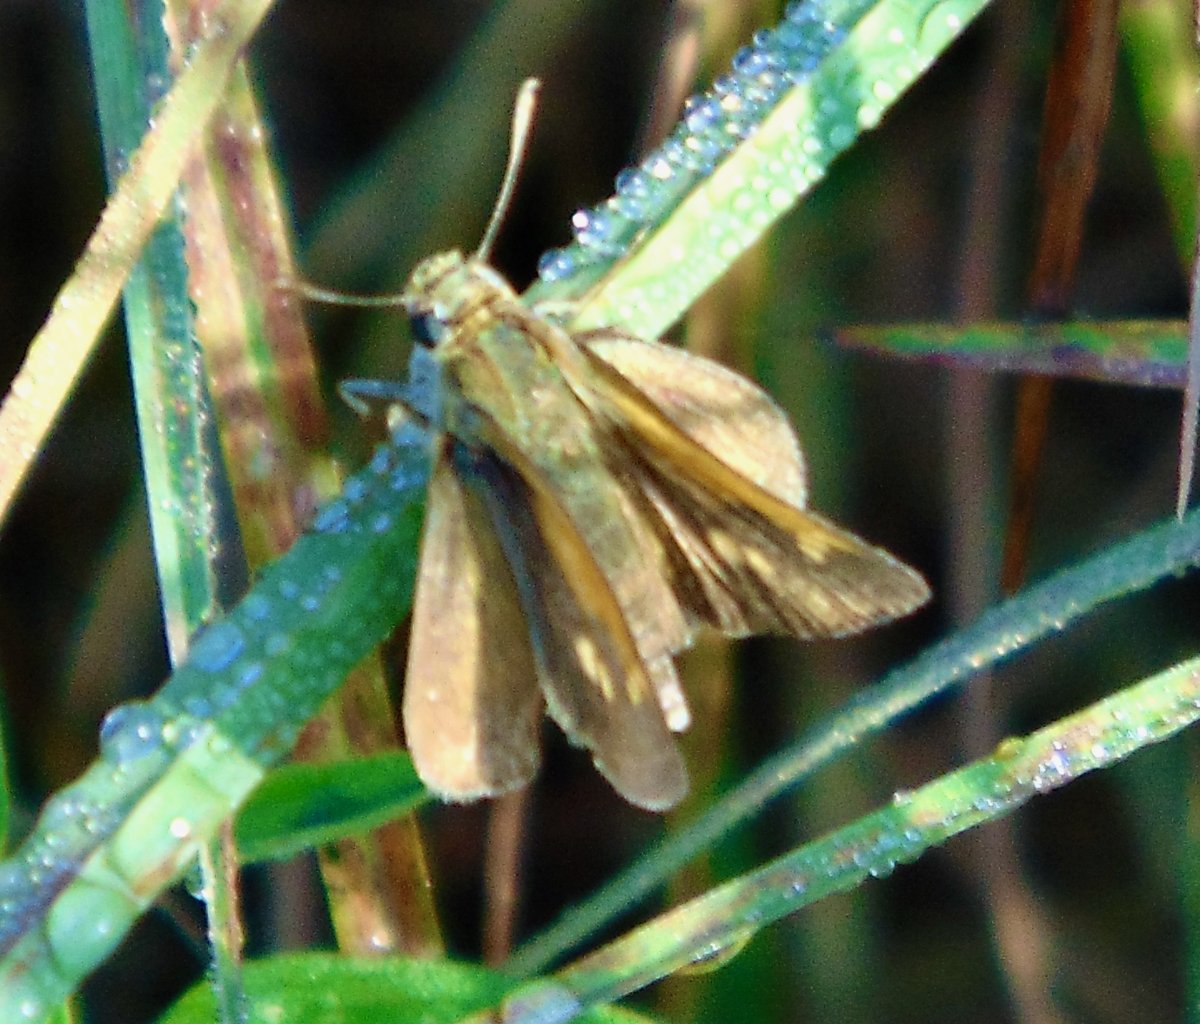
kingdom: Animalia
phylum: Arthropoda
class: Insecta
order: Lepidoptera
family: Hesperiidae
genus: Polites
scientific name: Polites themistocles
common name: Tawny-edged Skipper
